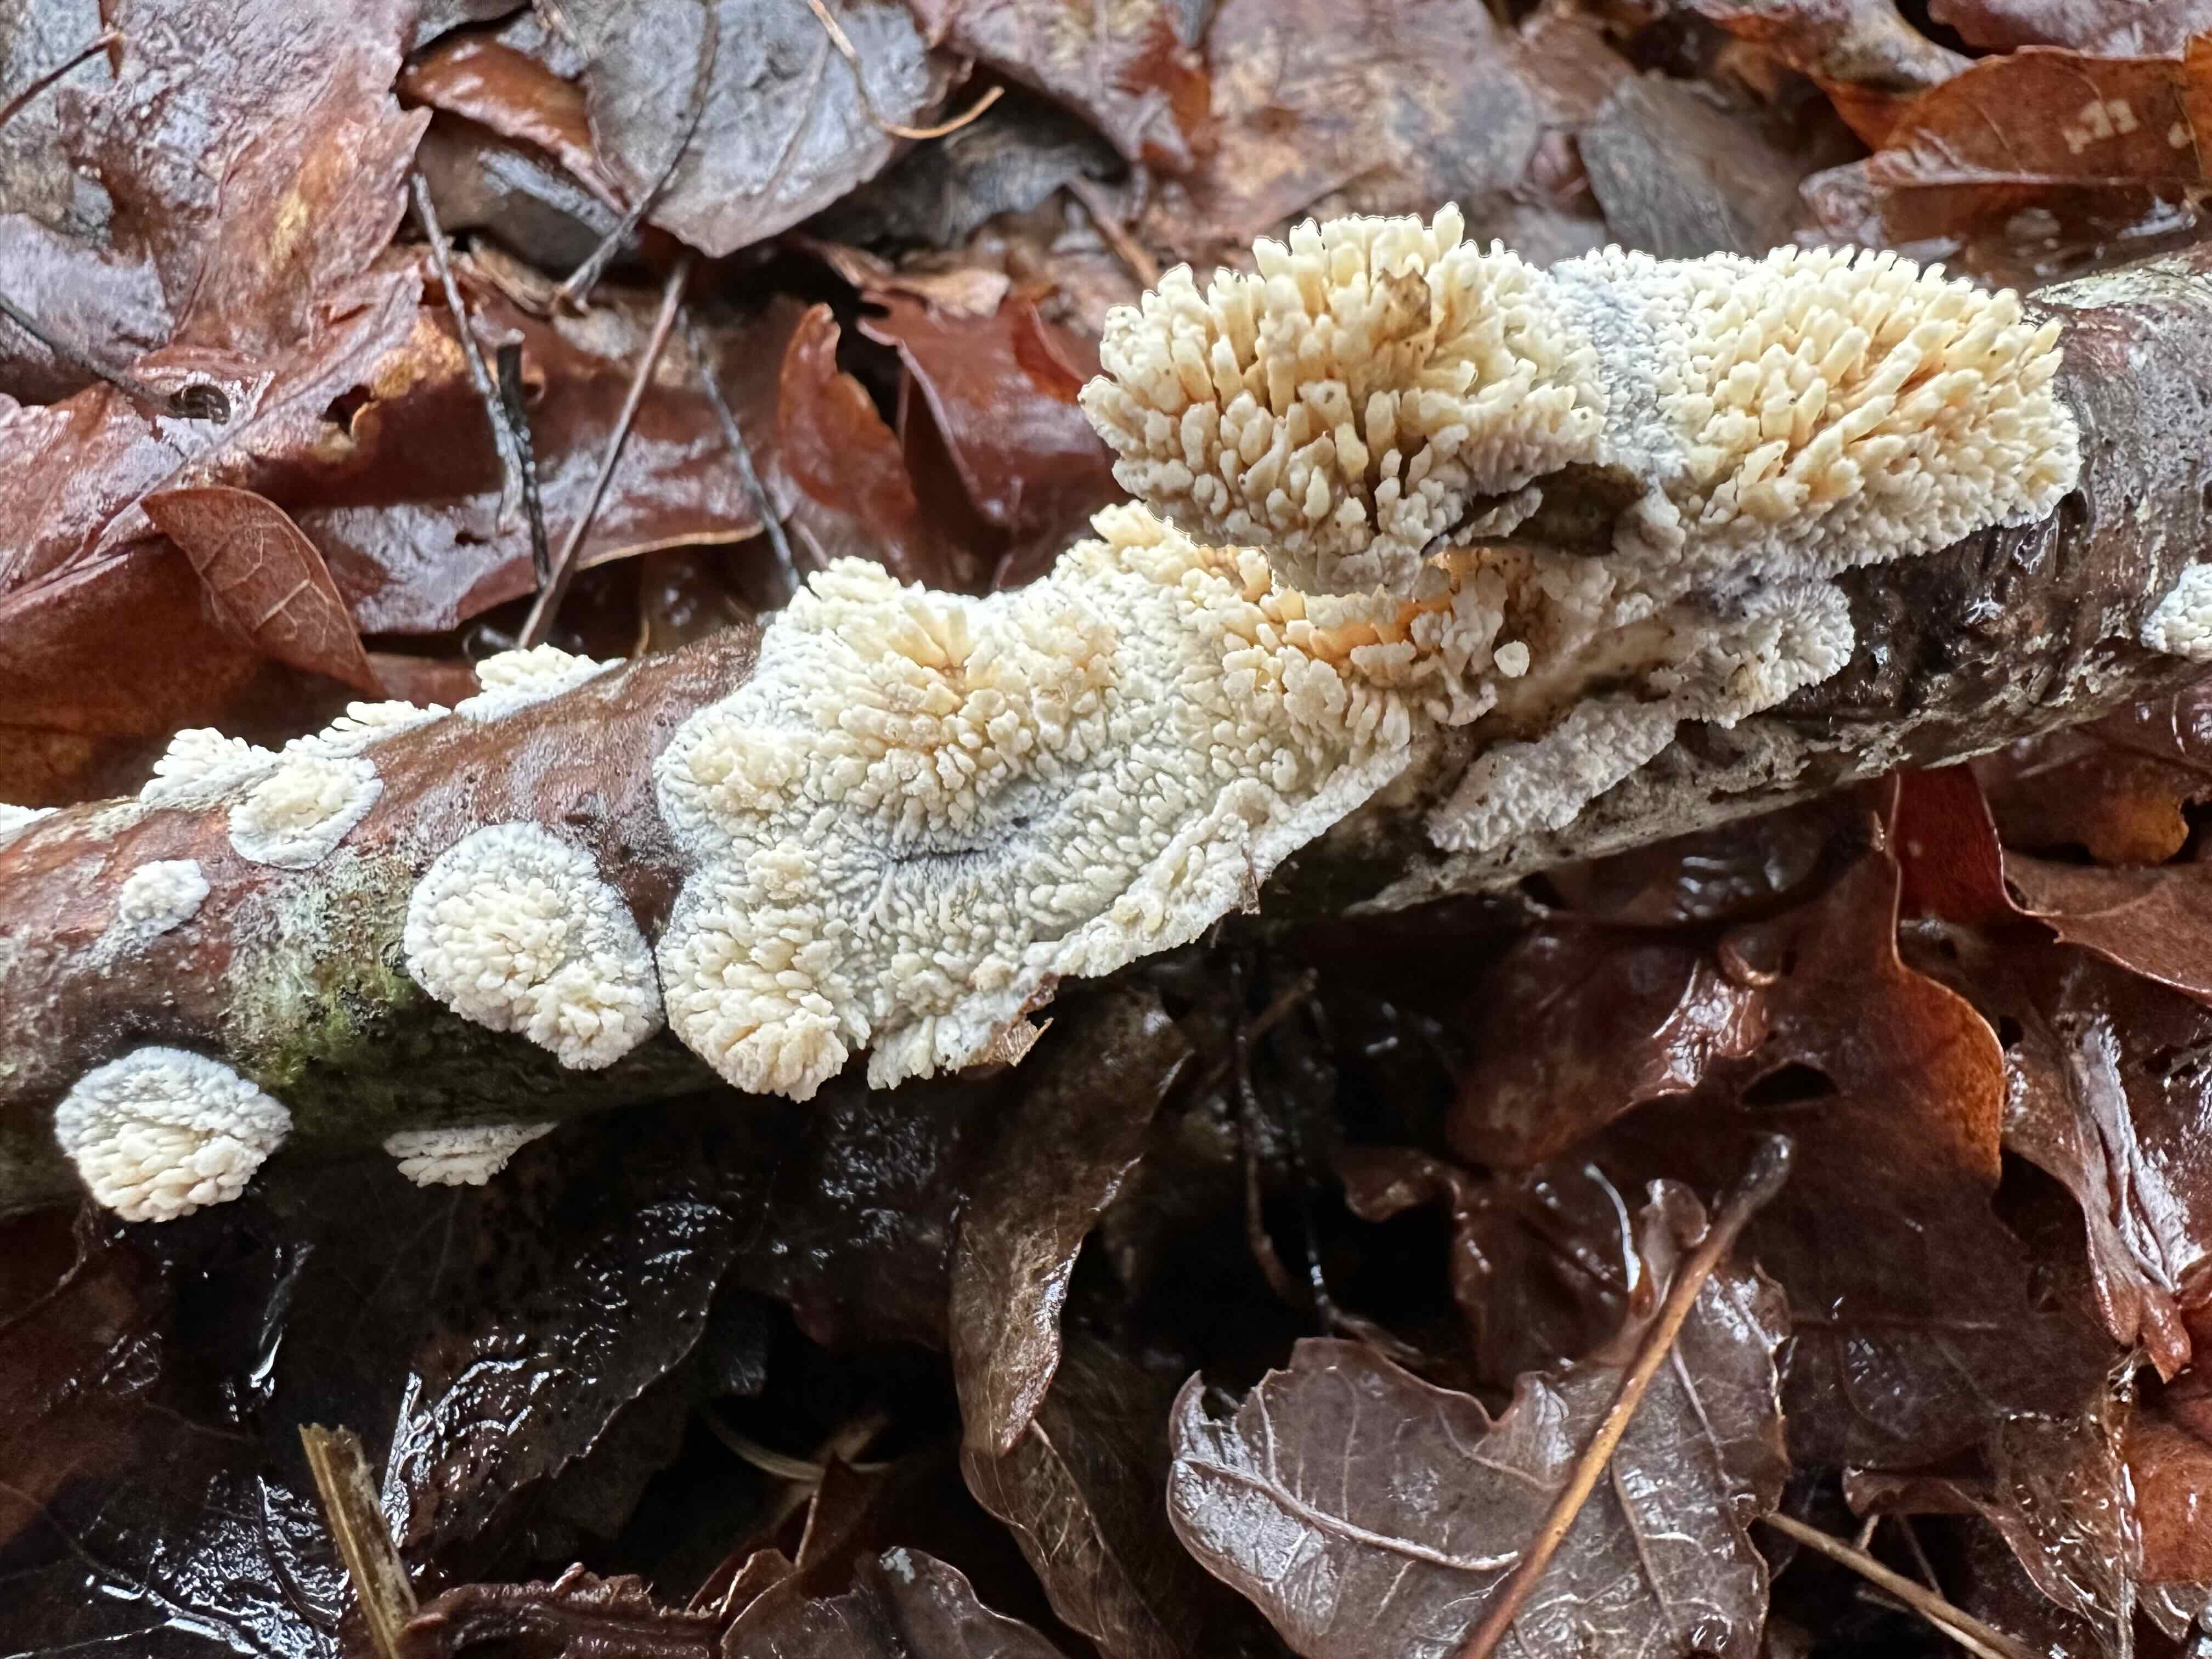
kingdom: Fungi
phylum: Basidiomycota
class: Agaricomycetes
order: Hymenochaetales
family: Schizoporaceae
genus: Xylodon
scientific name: Xylodon radula
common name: grovtandet kalkskind
